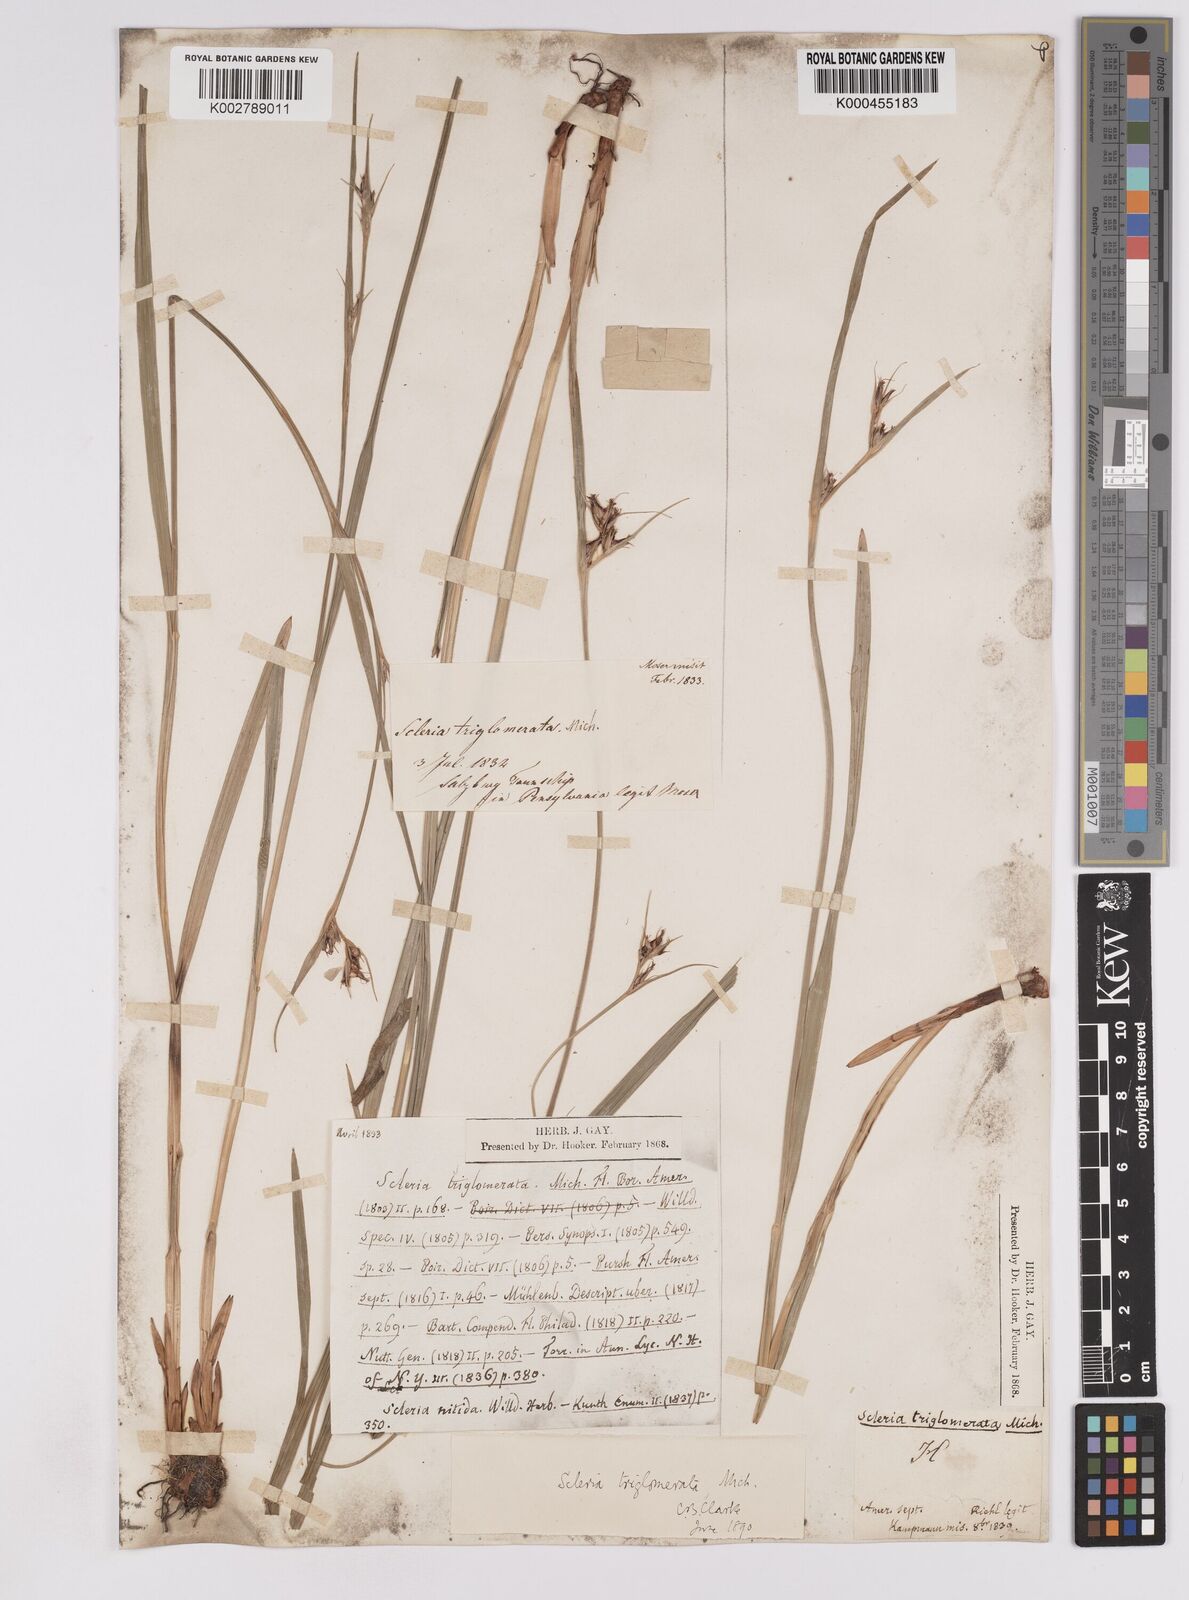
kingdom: Plantae
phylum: Tracheophyta
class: Liliopsida
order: Poales
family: Cyperaceae
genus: Scleria
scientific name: Scleria triglomerata
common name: Whip nutrush
